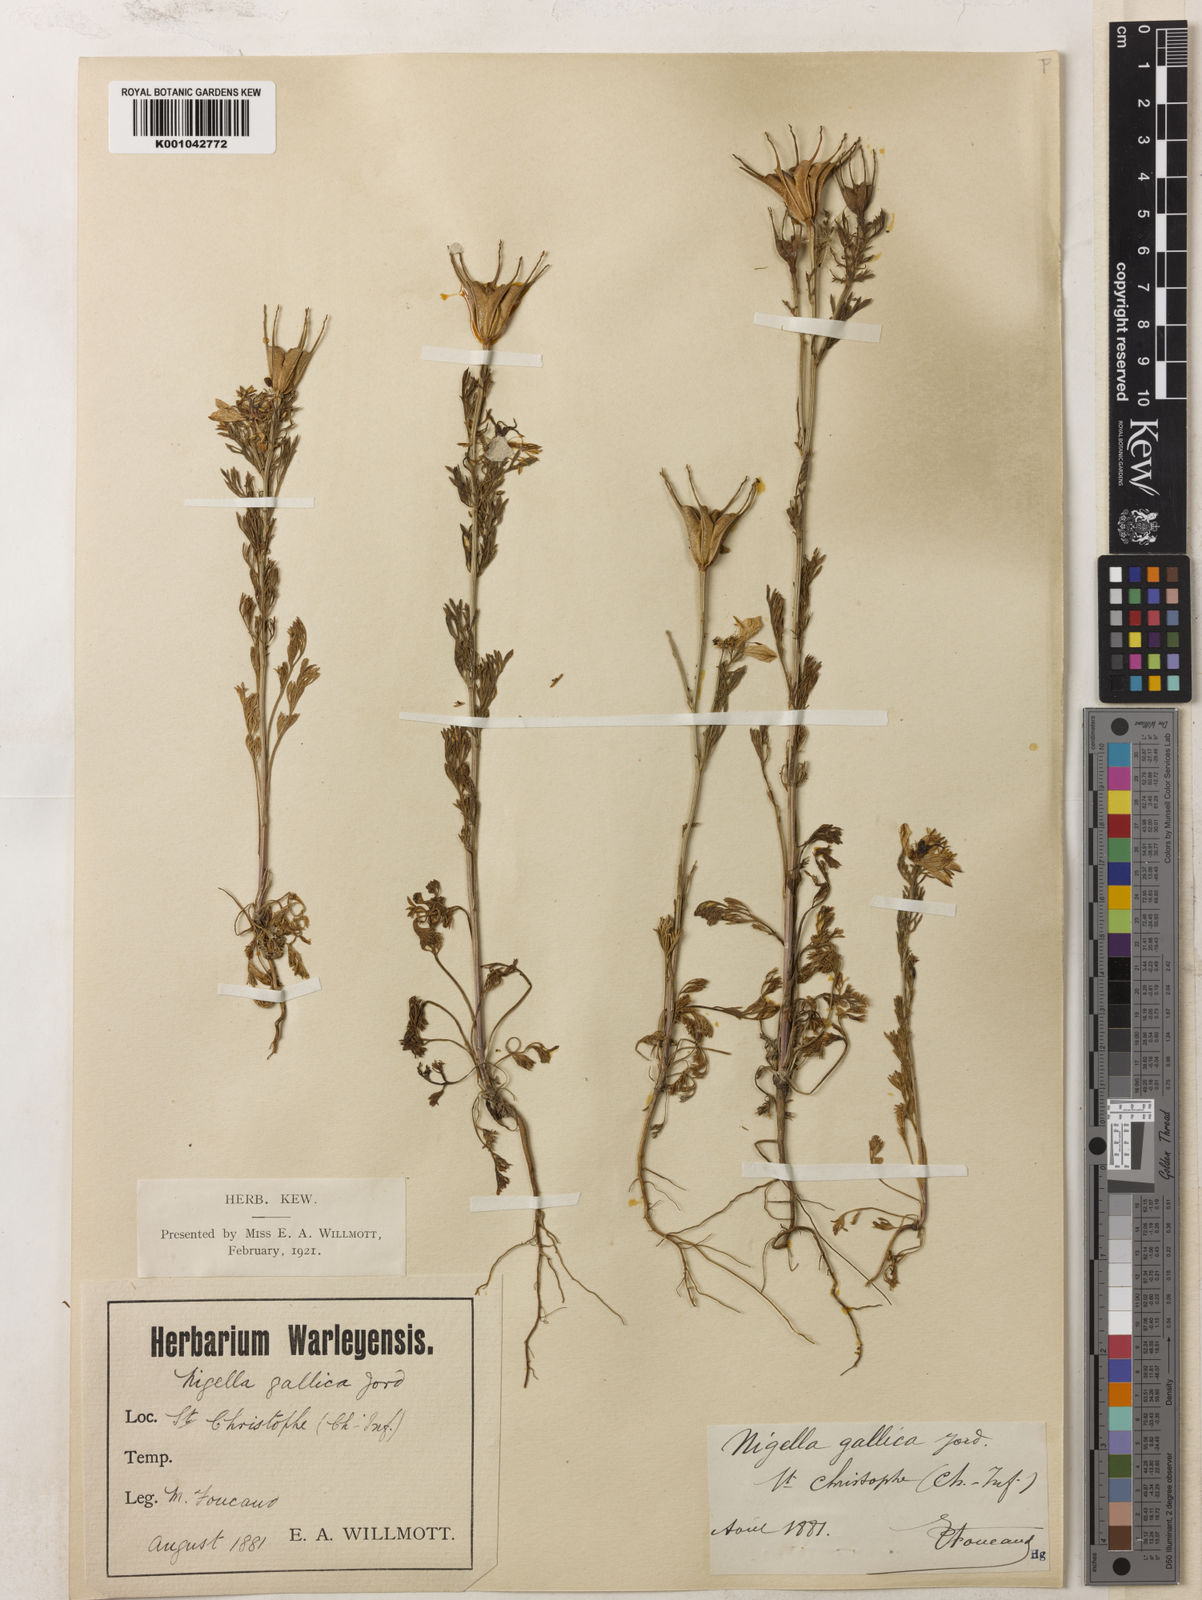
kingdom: Plantae
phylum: Tracheophyta
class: Magnoliopsida
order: Ranunculales
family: Ranunculaceae
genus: Nigella
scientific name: Nigella hispanica
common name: Fennel-flower
